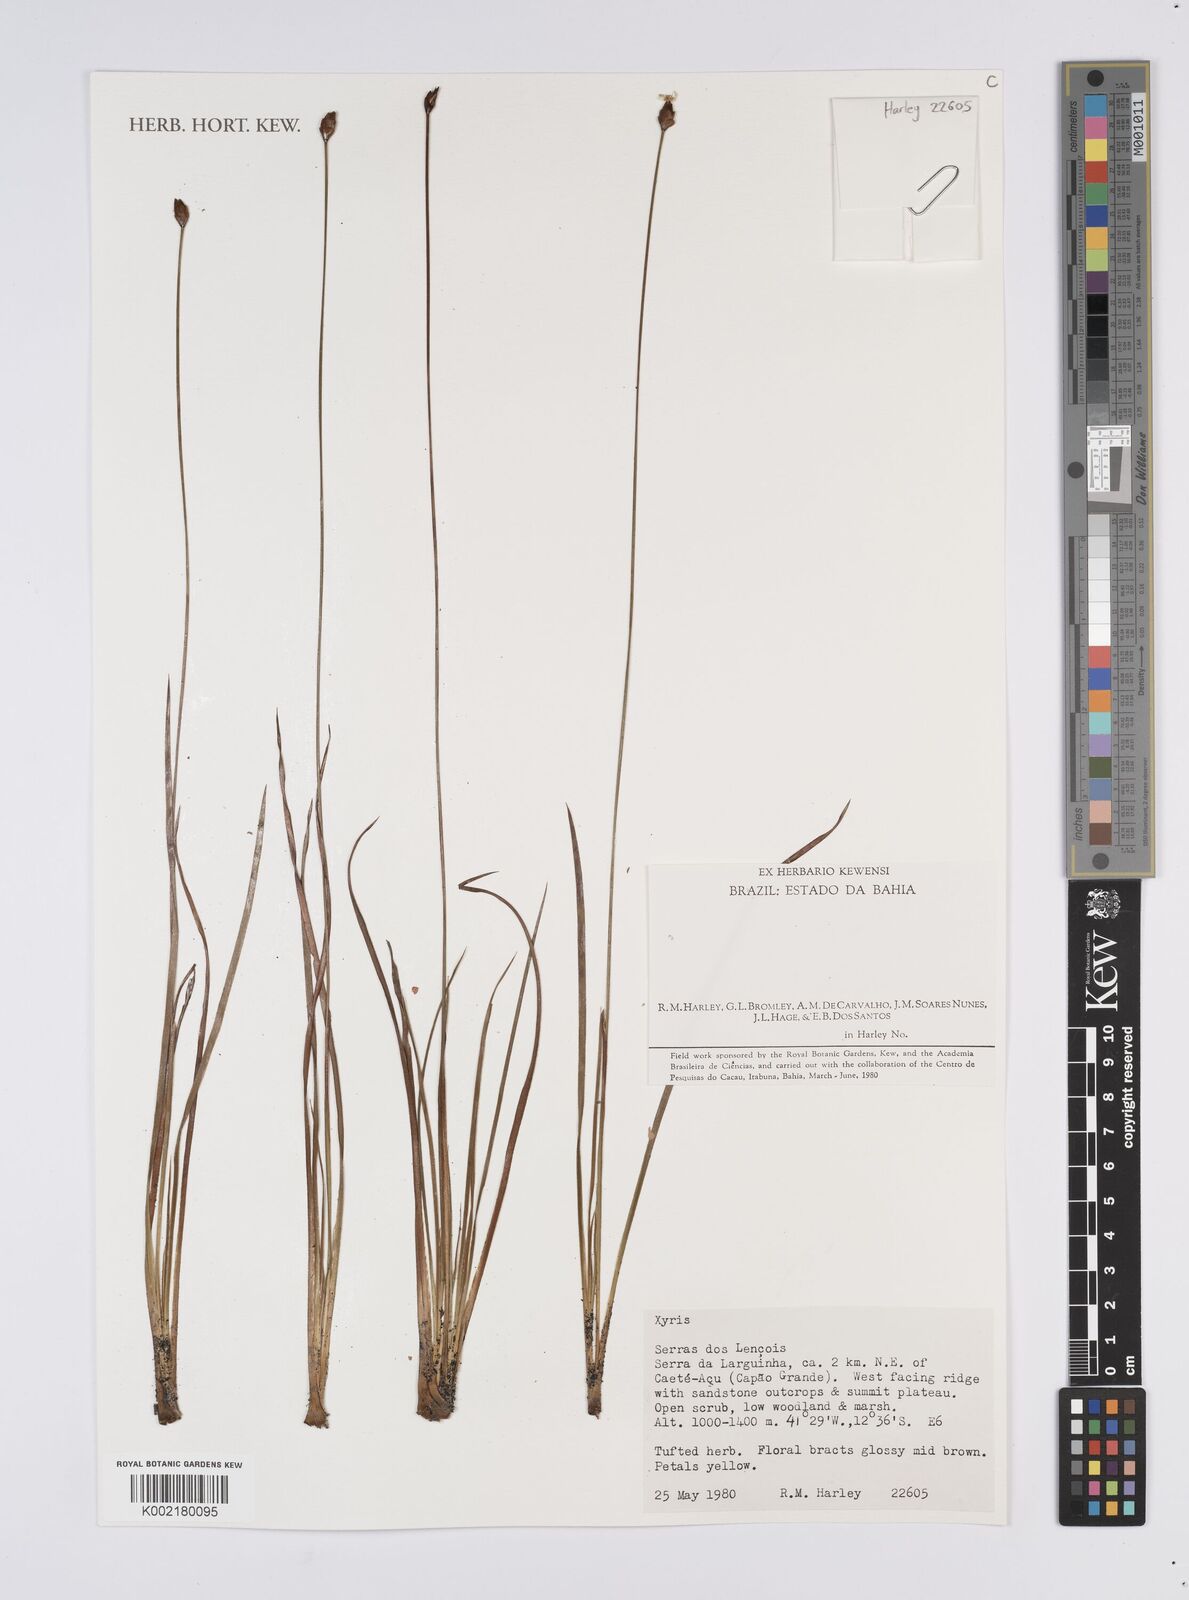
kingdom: Plantae
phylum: Tracheophyta
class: Liliopsida
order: Poales
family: Xyridaceae
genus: Xyris
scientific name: Xyris
